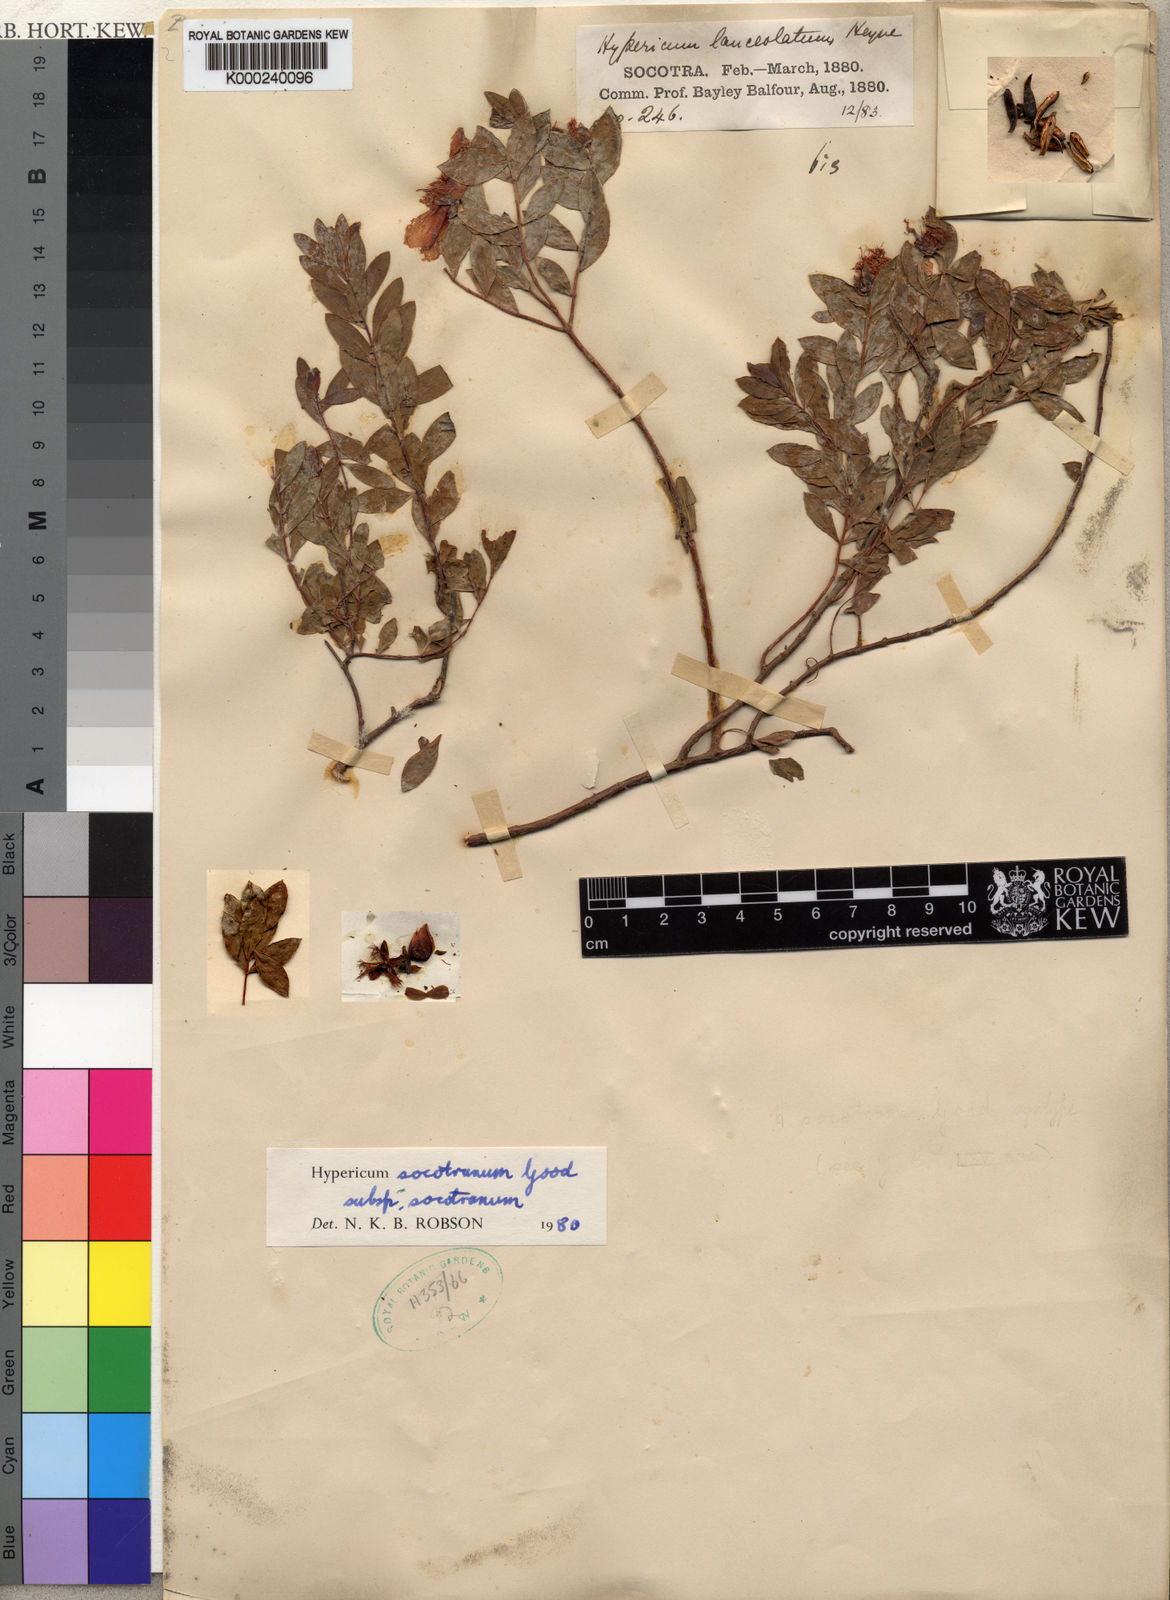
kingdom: Plantae
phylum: Tracheophyta
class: Magnoliopsida
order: Malpighiales
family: Hypericaceae
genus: Hypericum
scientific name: Hypericum socotranum
